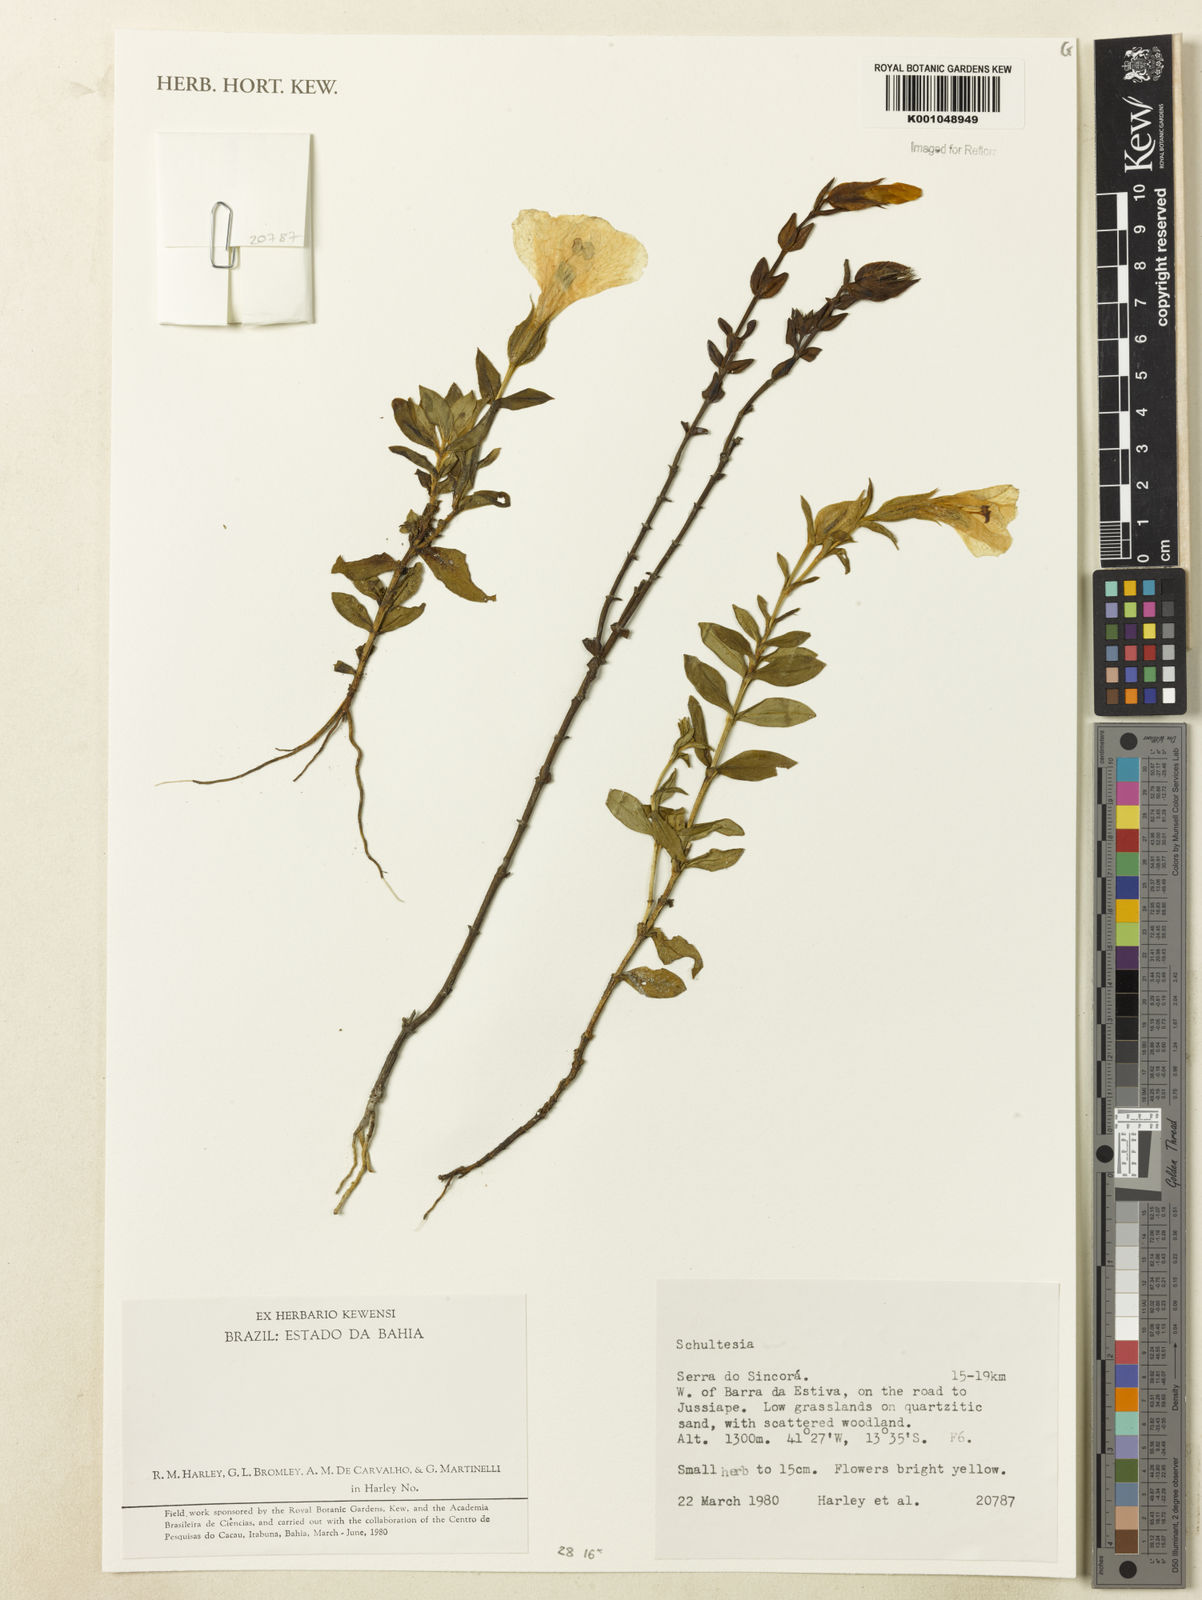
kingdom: Plantae
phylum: Tracheophyta
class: Magnoliopsida
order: Gentianales
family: Gentianaceae
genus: Schultesia
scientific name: Schultesia
